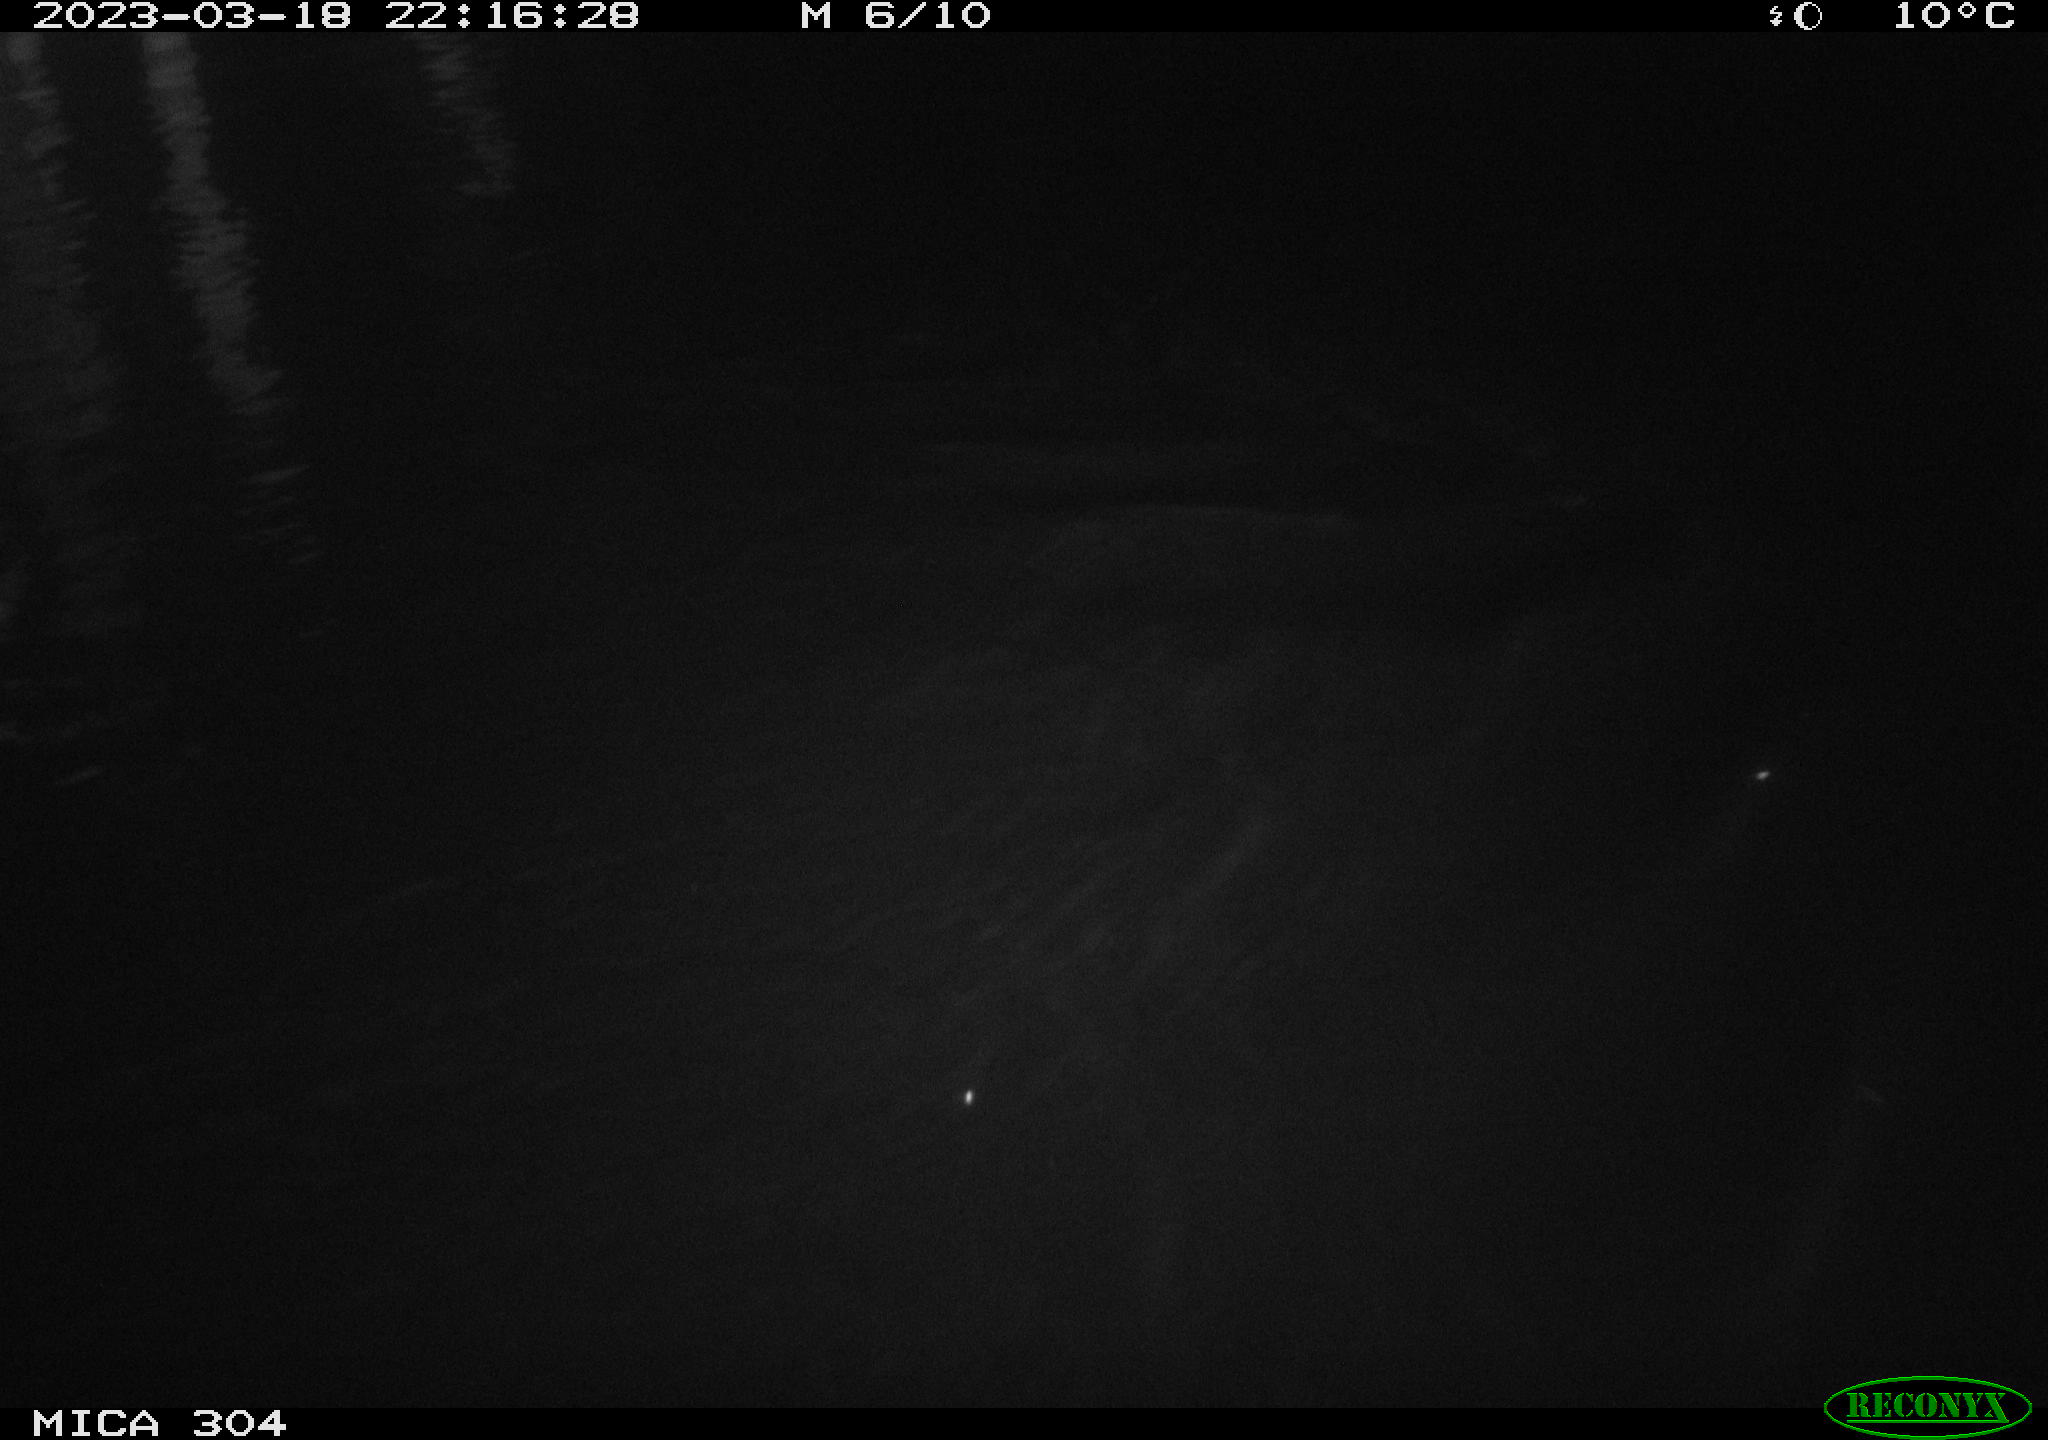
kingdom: Animalia
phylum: Chordata
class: Mammalia
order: Rodentia
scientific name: Rodentia
